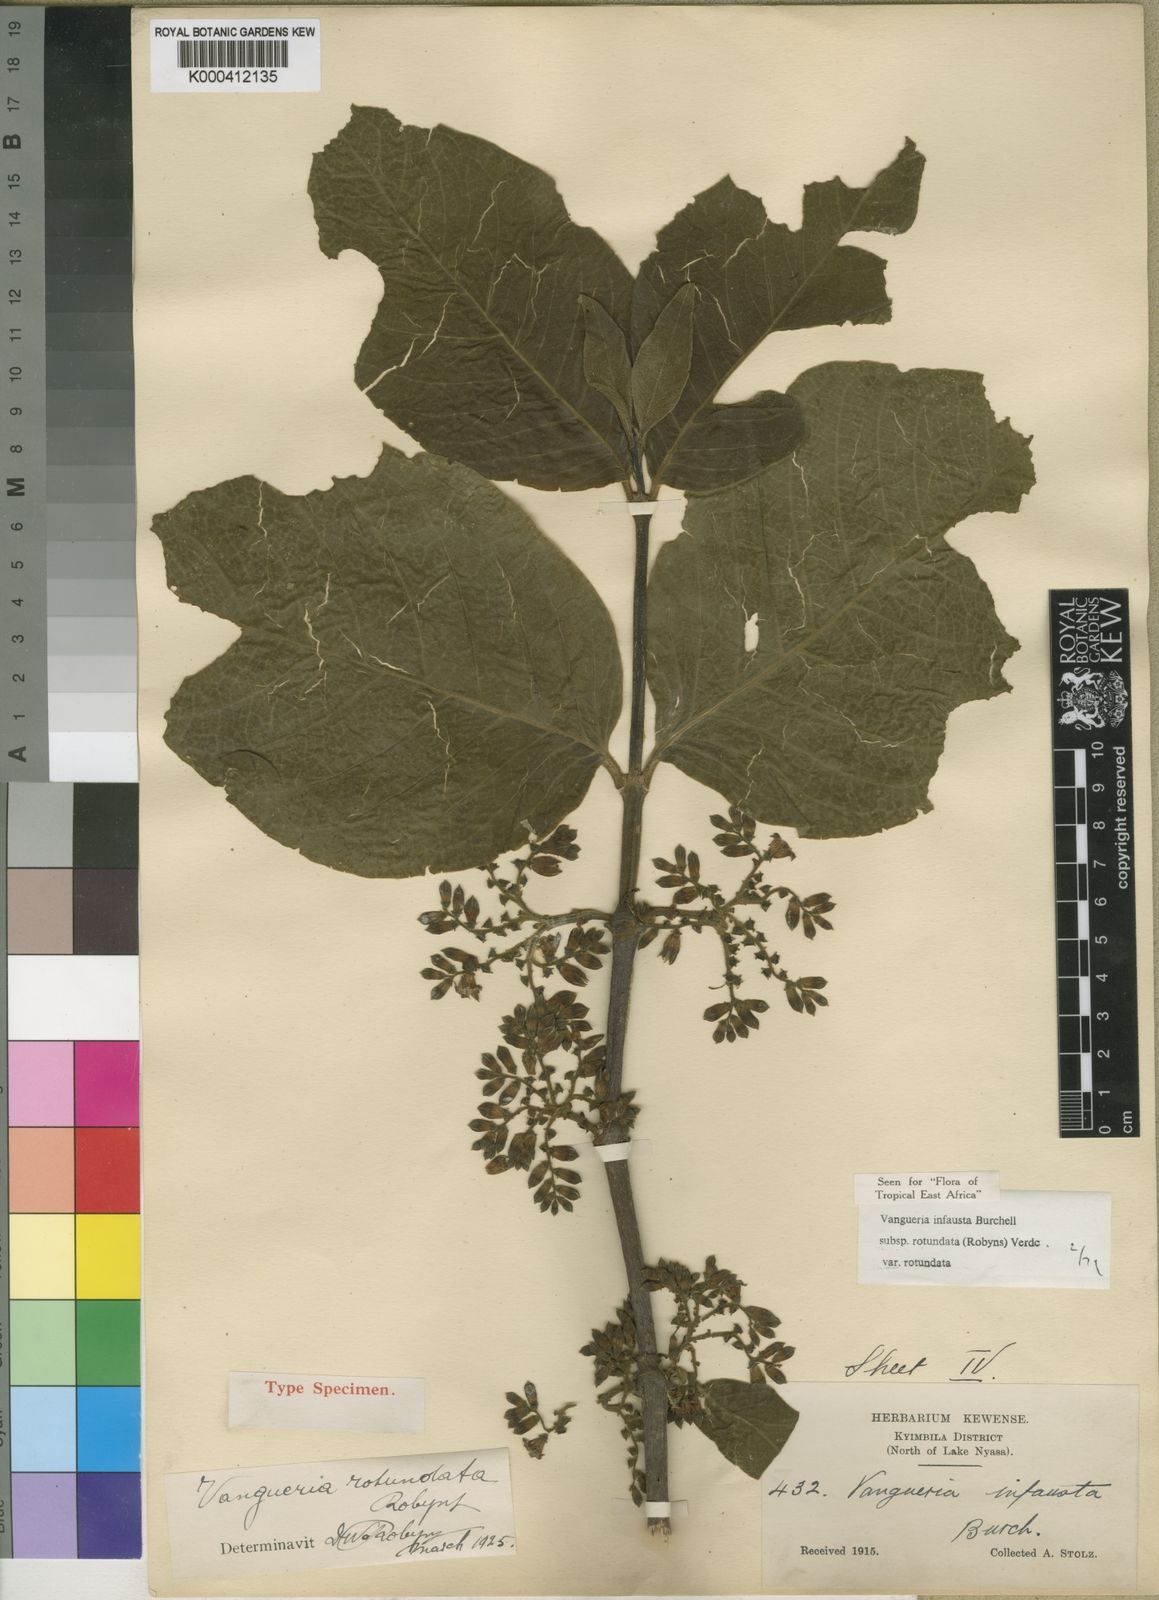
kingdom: Plantae
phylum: Tracheophyta
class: Magnoliopsida
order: Gentianales
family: Rubiaceae
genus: Vangueria
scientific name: Vangueria infausta
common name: Medlar
